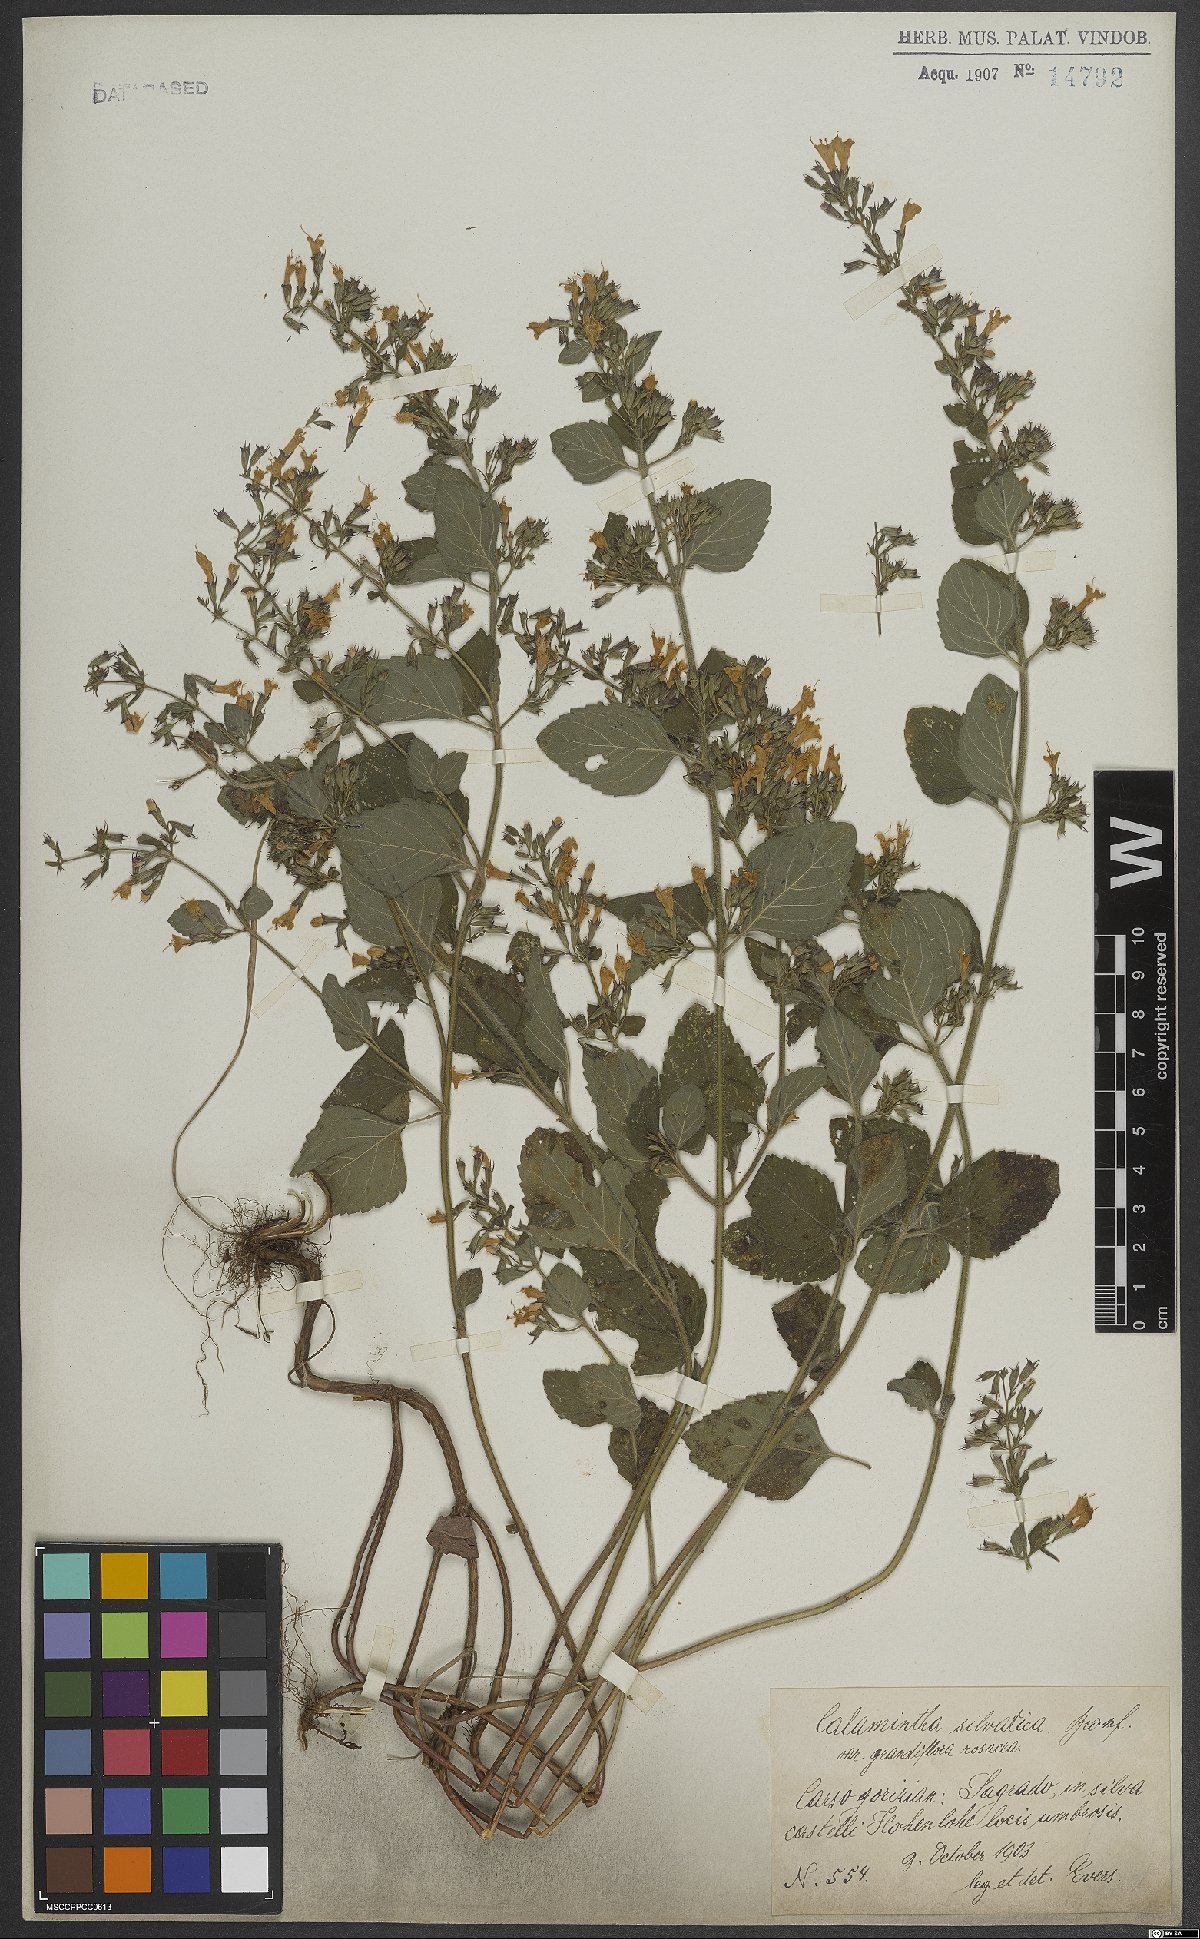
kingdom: Plantae
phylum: Tracheophyta
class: Magnoliopsida
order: Lamiales
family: Lamiaceae
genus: Clinopodium
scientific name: Clinopodium menthifolium
